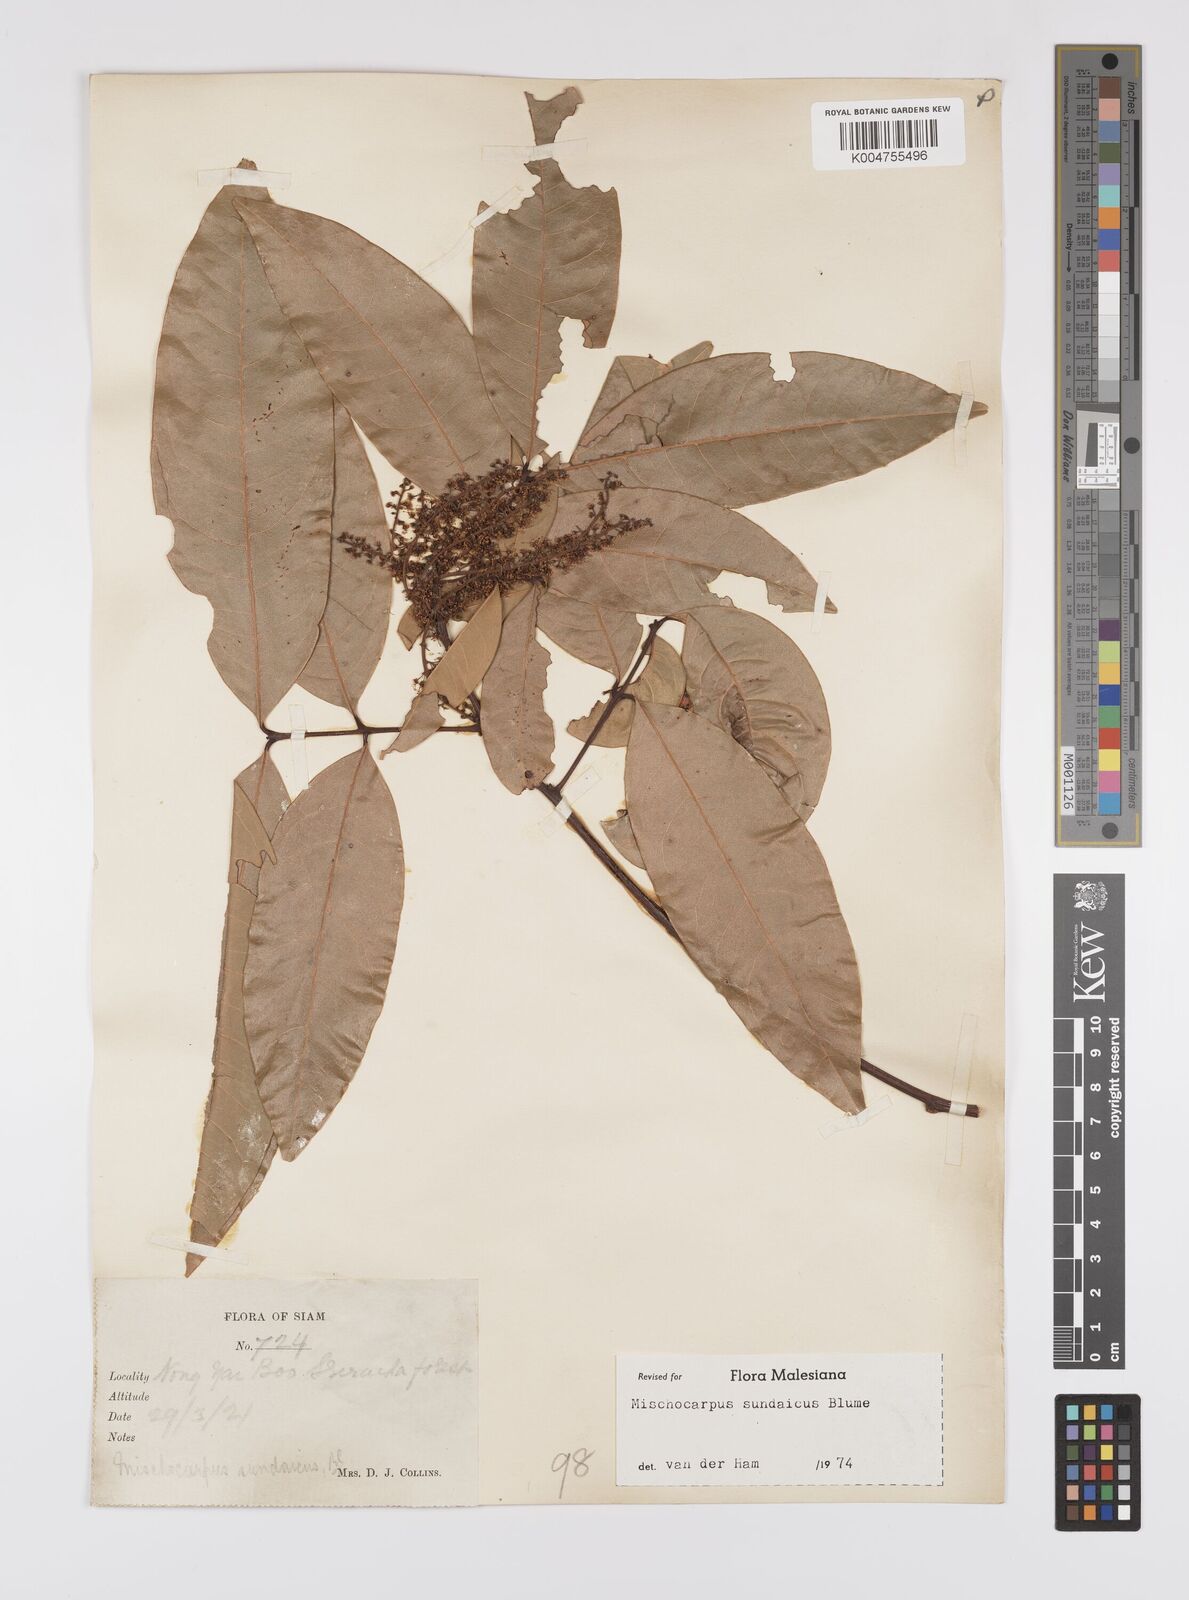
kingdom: Plantae
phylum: Tracheophyta
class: Magnoliopsida
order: Sapindales
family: Sapindaceae
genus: Mischocarpus
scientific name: Mischocarpus sundaicus
